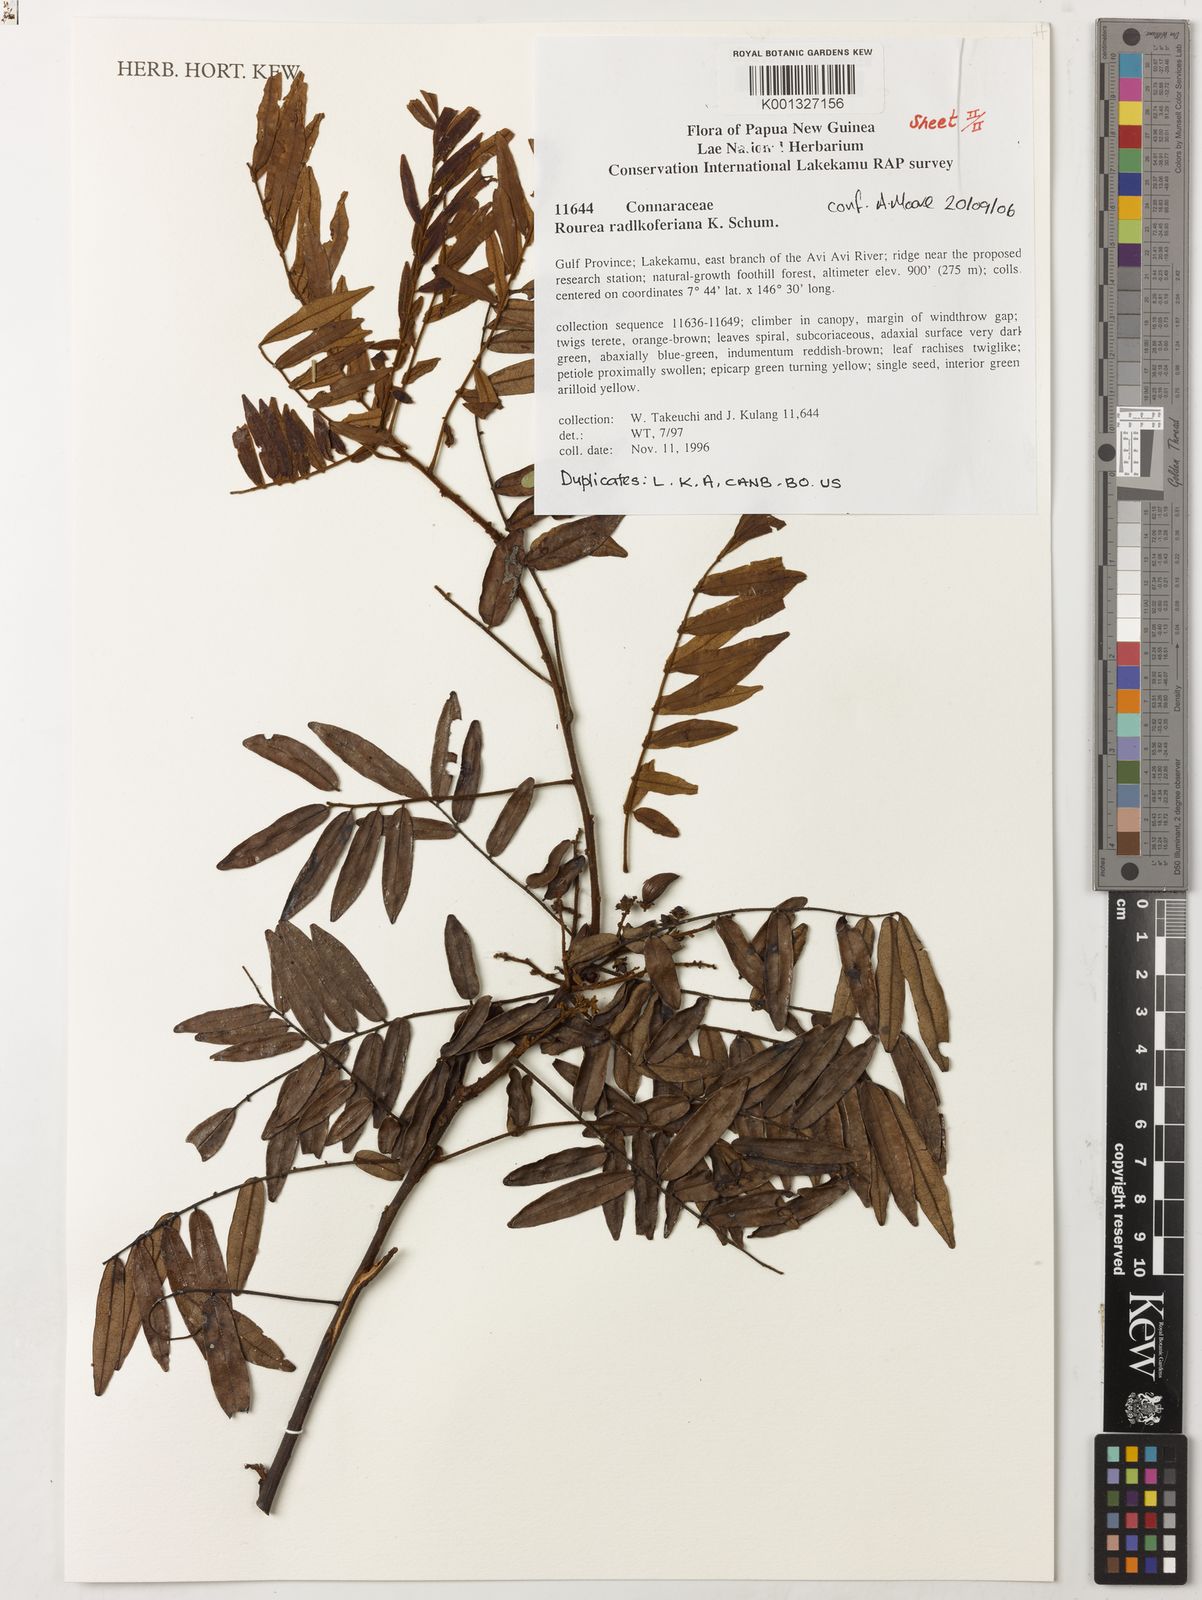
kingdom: Plantae
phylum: Tracheophyta
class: Magnoliopsida
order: Oxalidales
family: Connaraceae
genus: Rourea
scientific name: Rourea radlkoferiana
